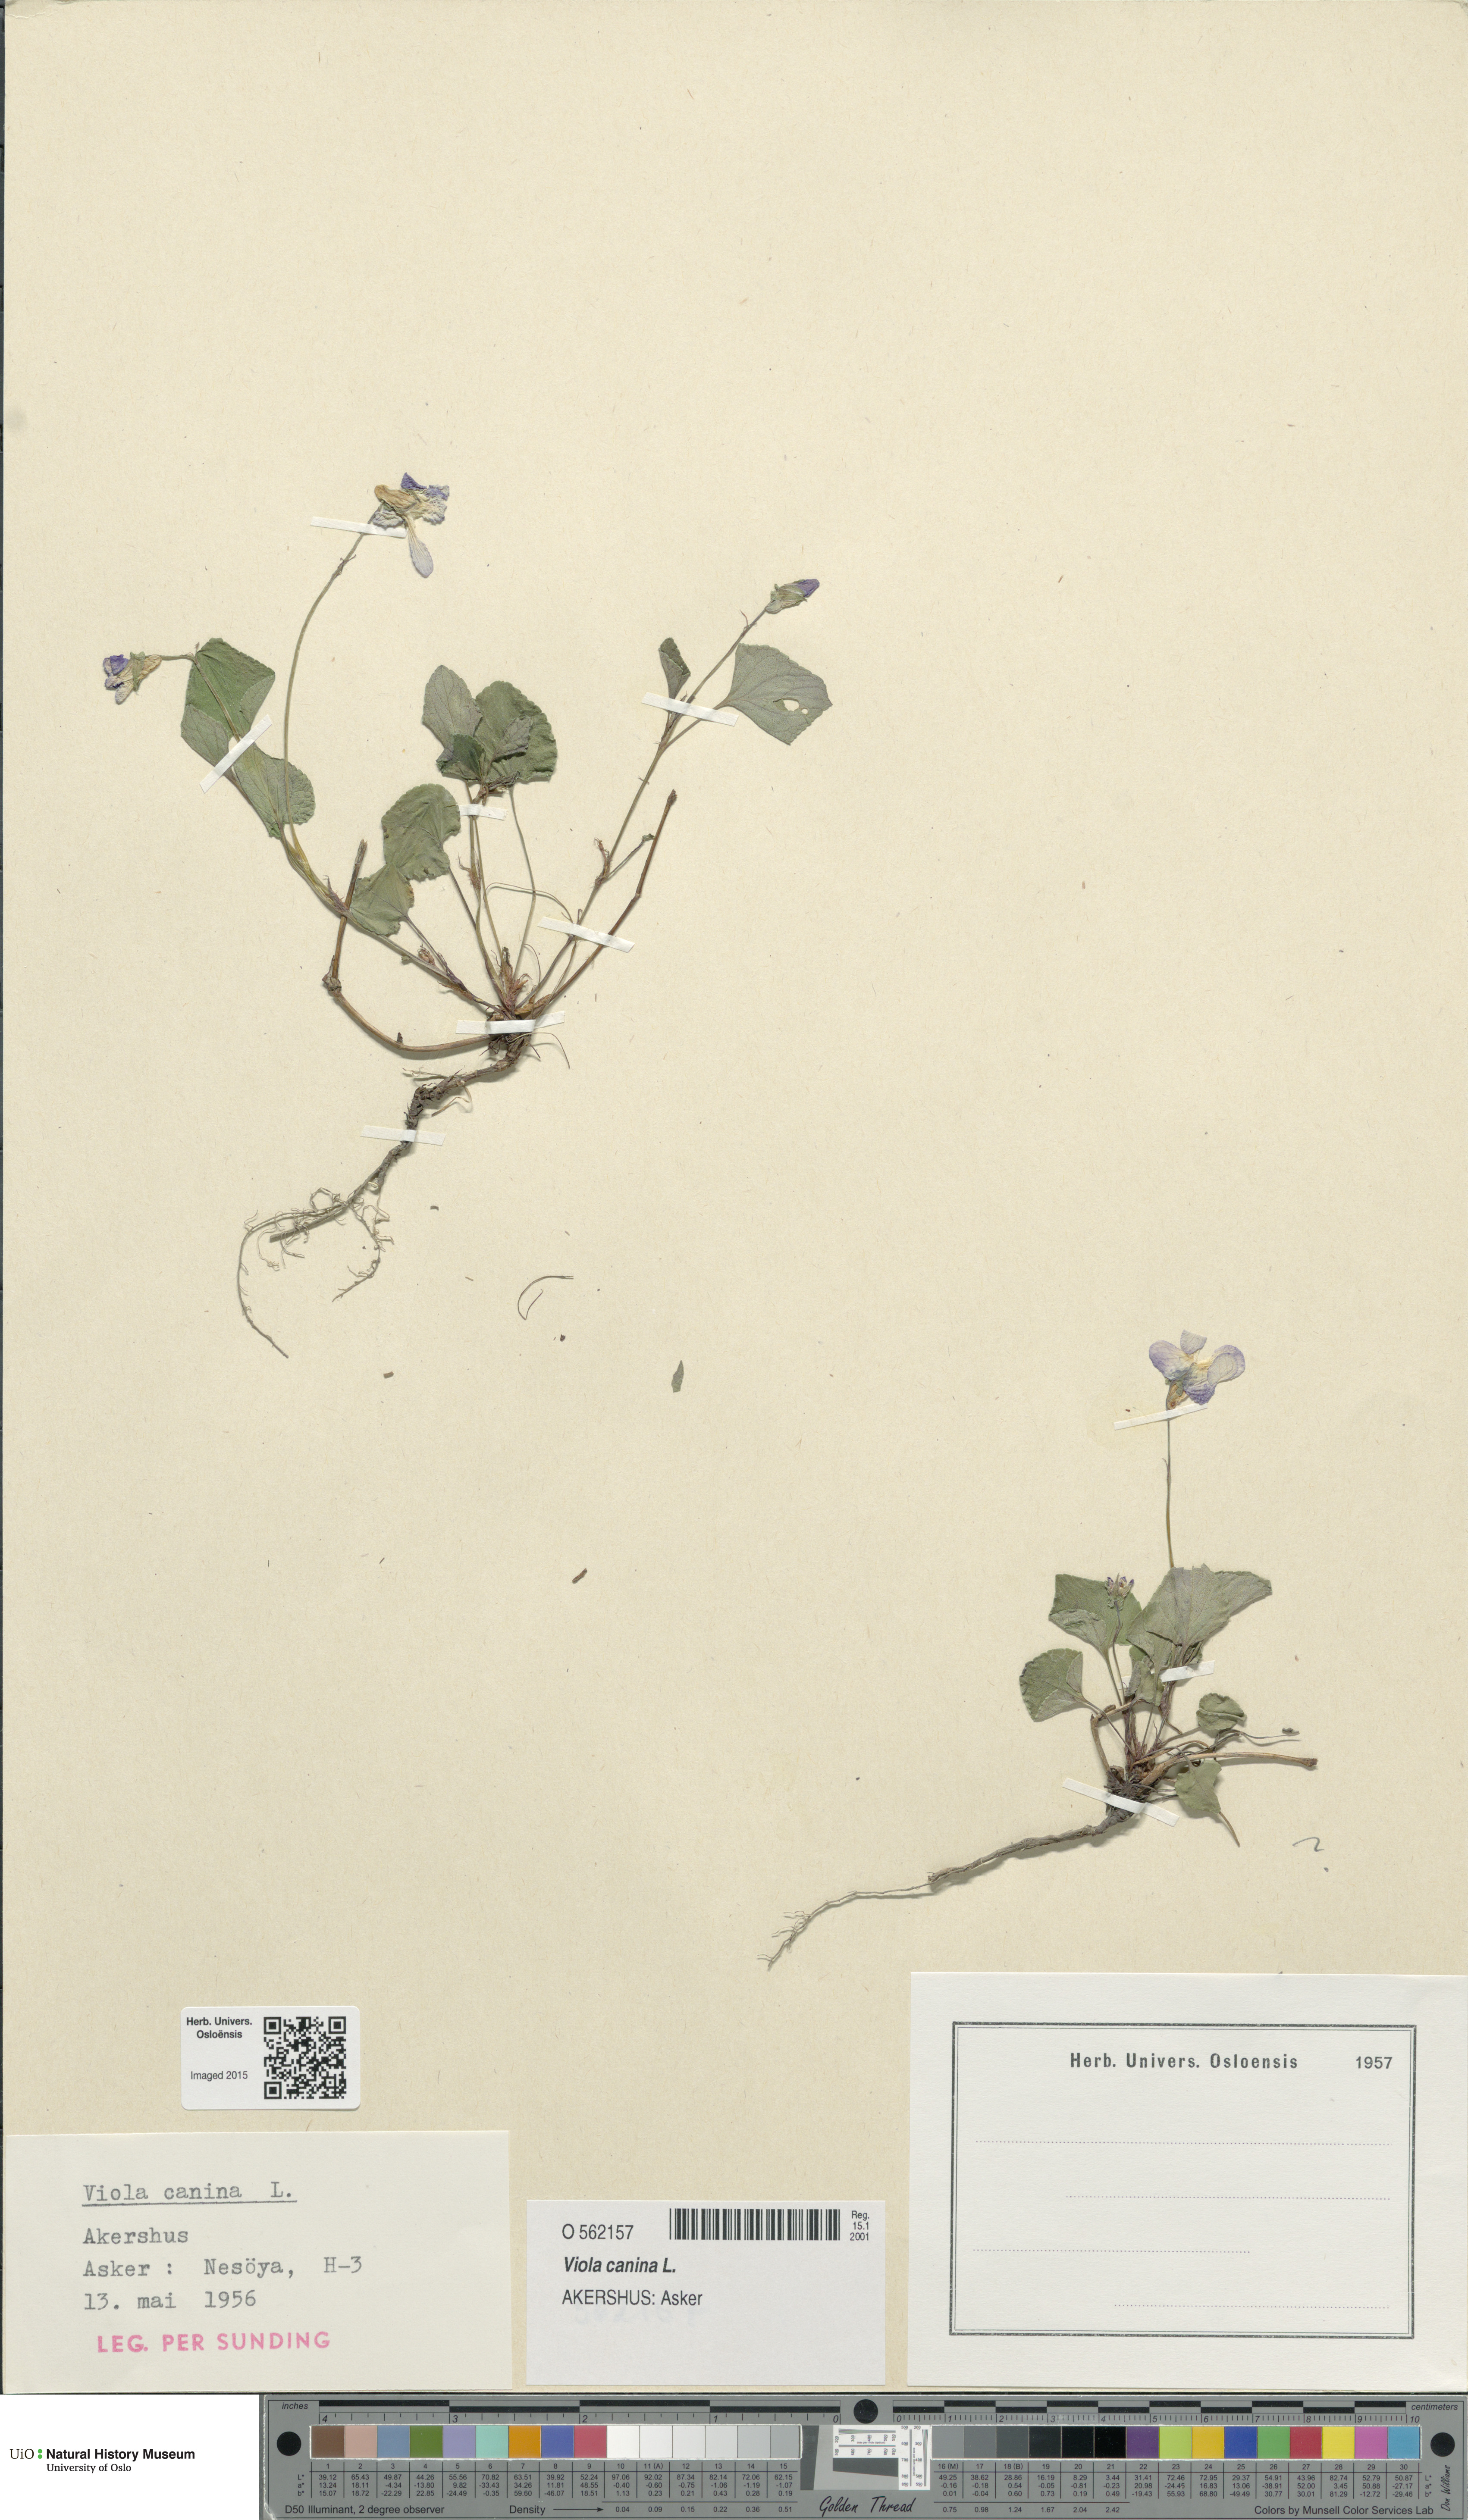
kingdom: Plantae
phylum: Tracheophyta
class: Magnoliopsida
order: Malpighiales
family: Violaceae
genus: Viola
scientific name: Viola canina
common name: Heath dog-violet
